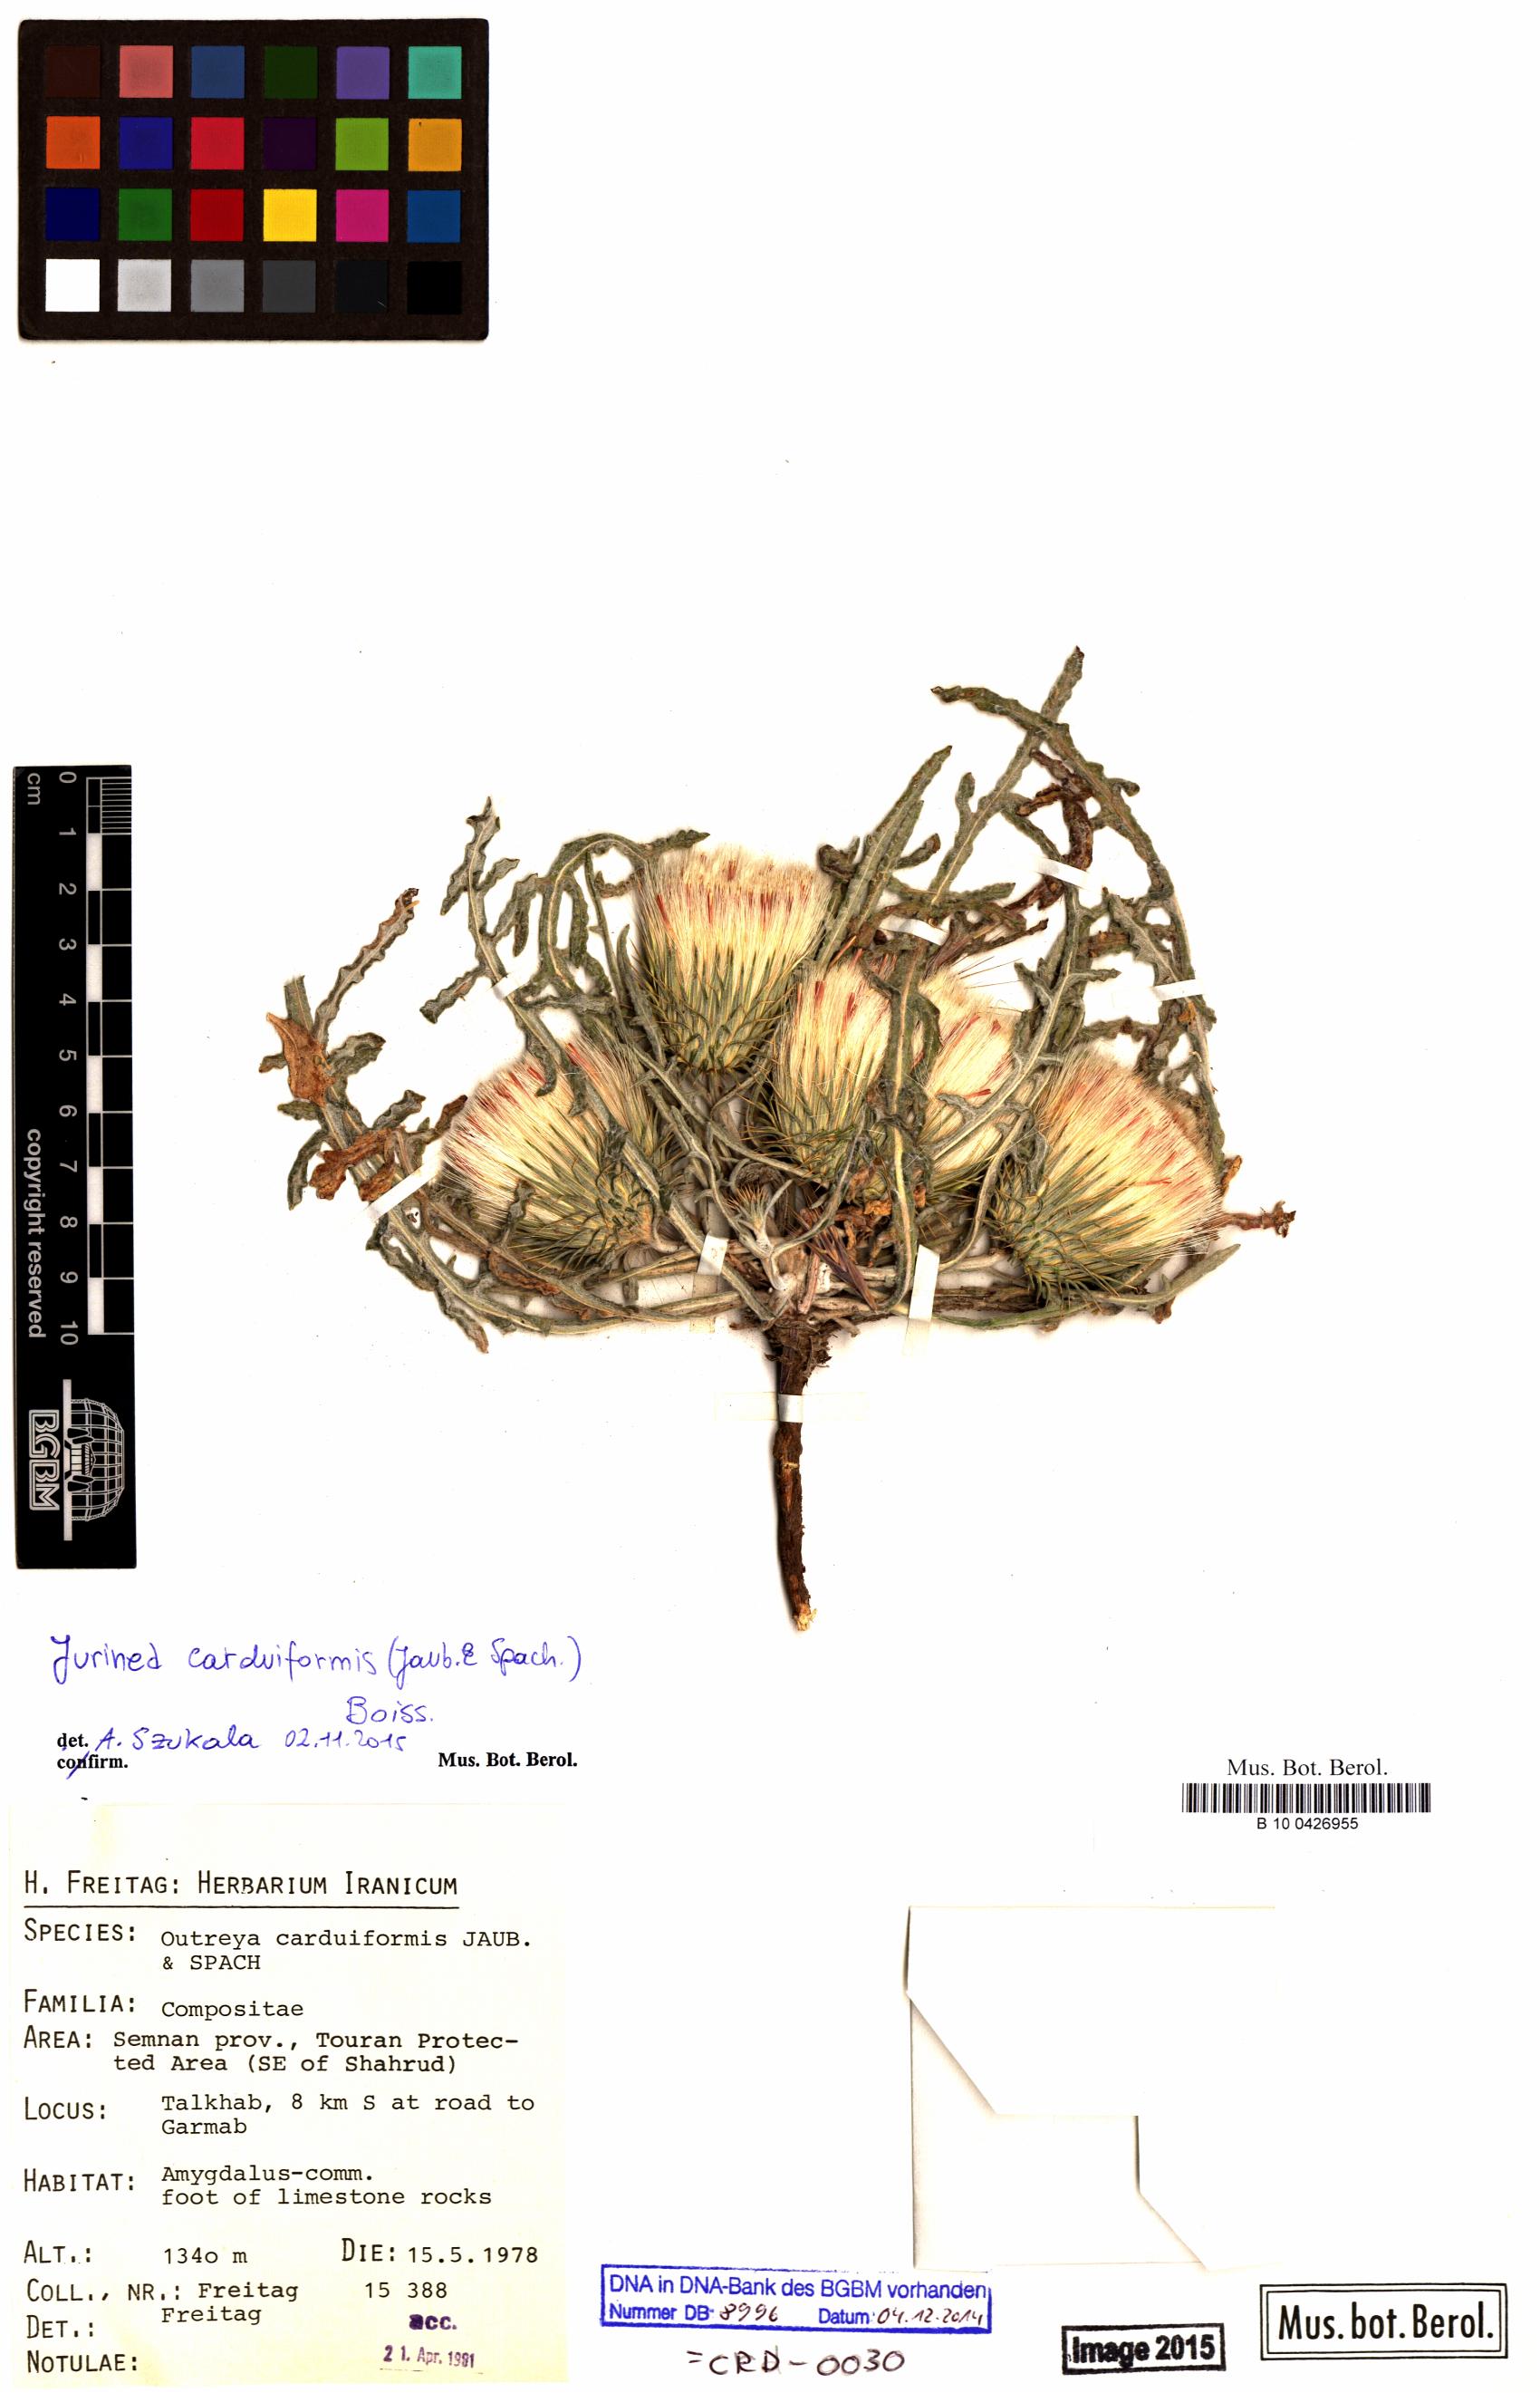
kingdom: Plantae
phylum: Tracheophyta
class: Magnoliopsida
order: Asterales
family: Asteraceae
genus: Jurinea
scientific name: Jurinea carduiformis
